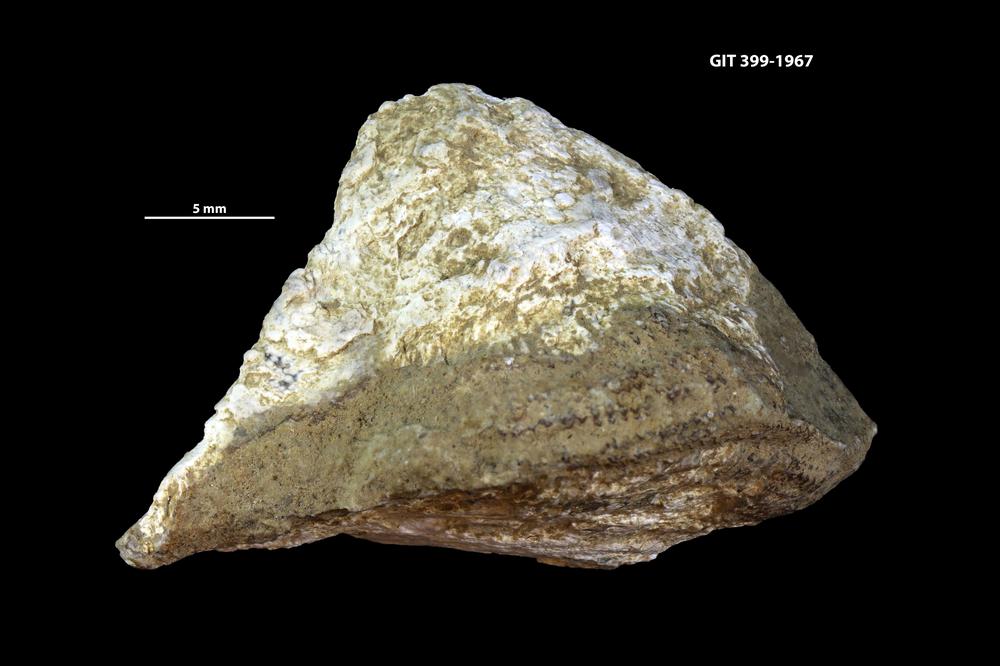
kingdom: Animalia
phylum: Brachiopoda
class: Rhynchonellata
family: Clitambonitidae
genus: Clitambonites
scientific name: Clitambonites
